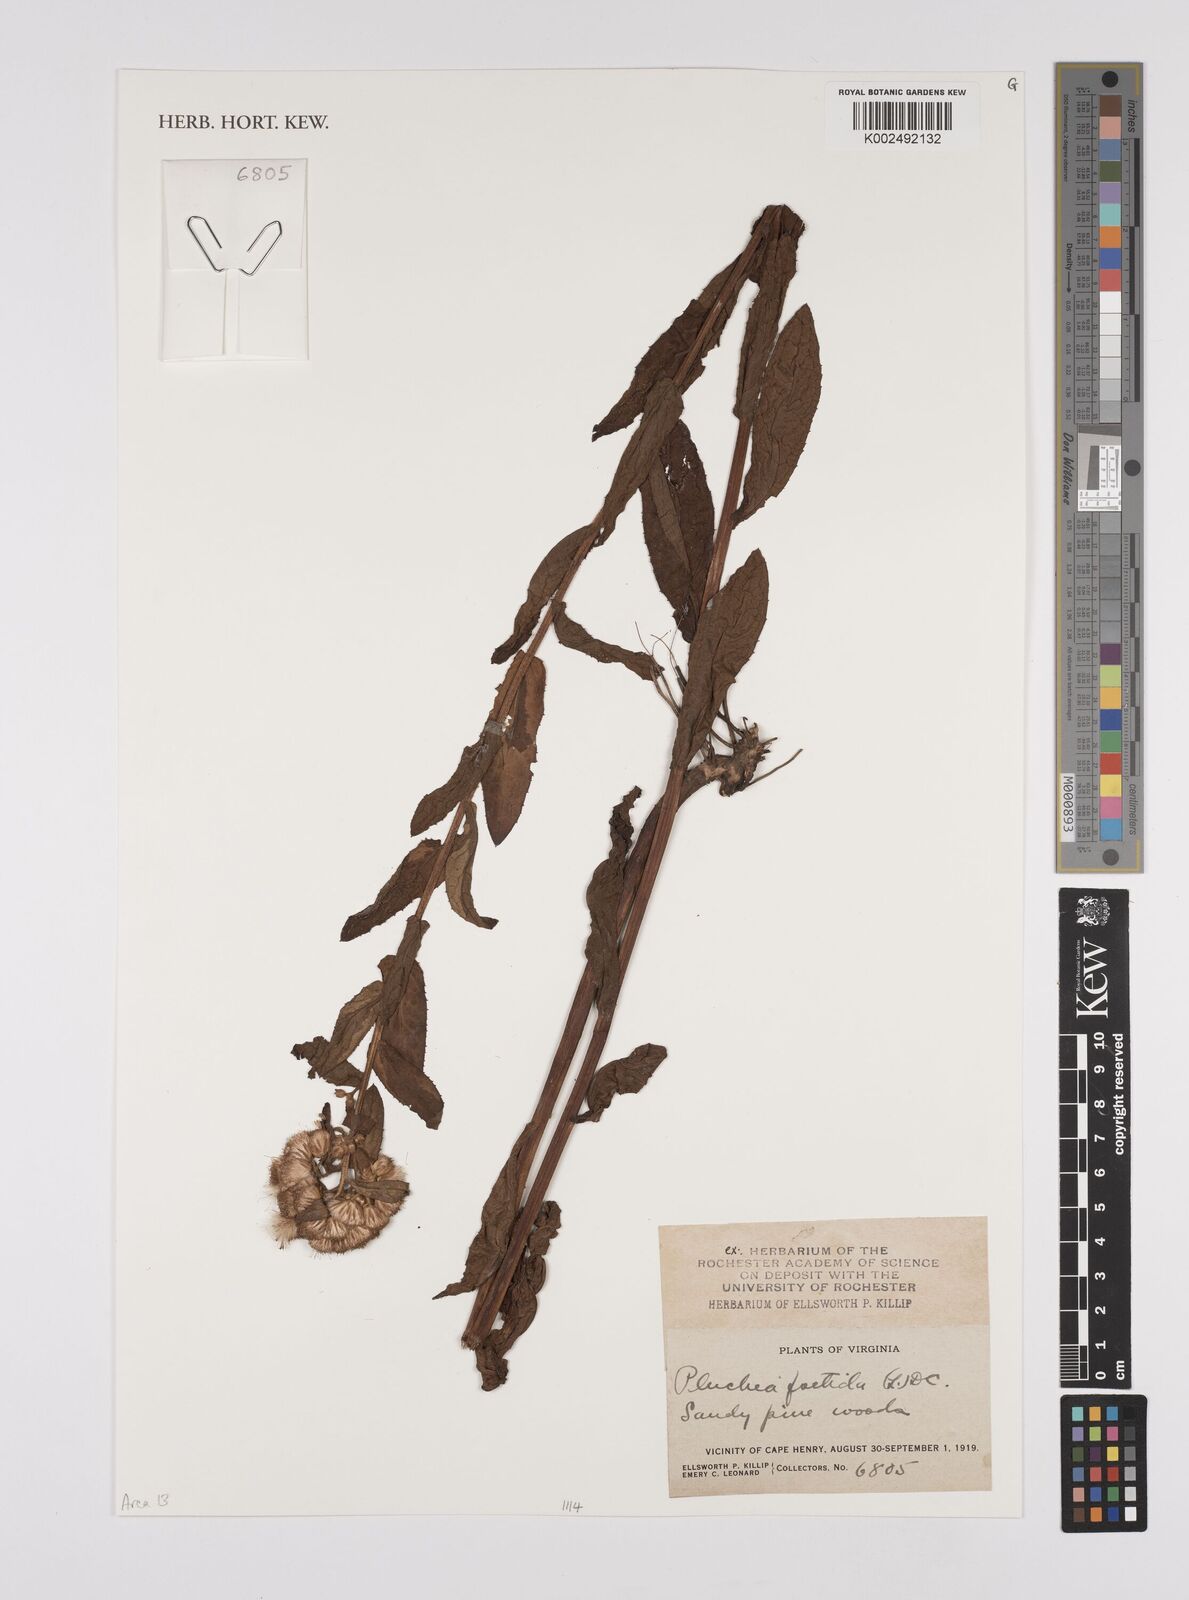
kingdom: Plantae
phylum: Tracheophyta
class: Magnoliopsida
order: Asterales
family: Asteraceae
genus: Pluchea
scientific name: Pluchea foetida
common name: Stinking camphorweed
